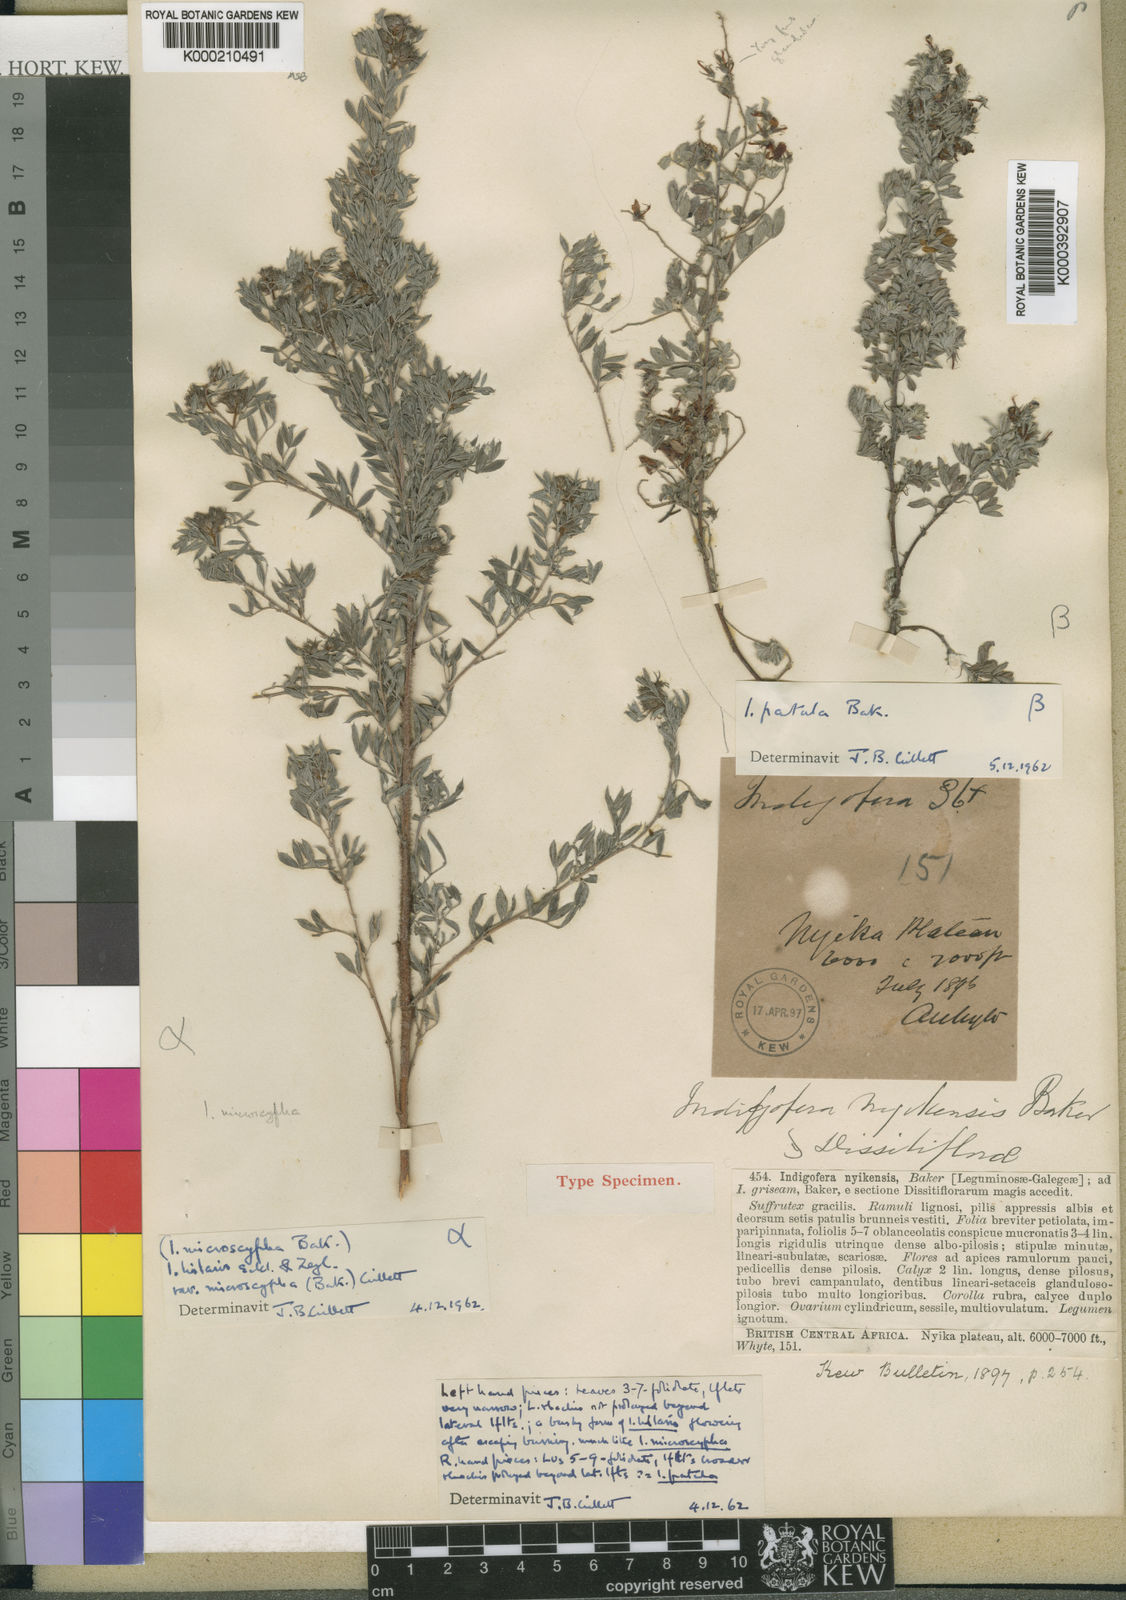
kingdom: Plantae
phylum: Tracheophyta
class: Magnoliopsida
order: Fabales
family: Fabaceae
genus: Indigofera
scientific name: Indigofera hilaris
